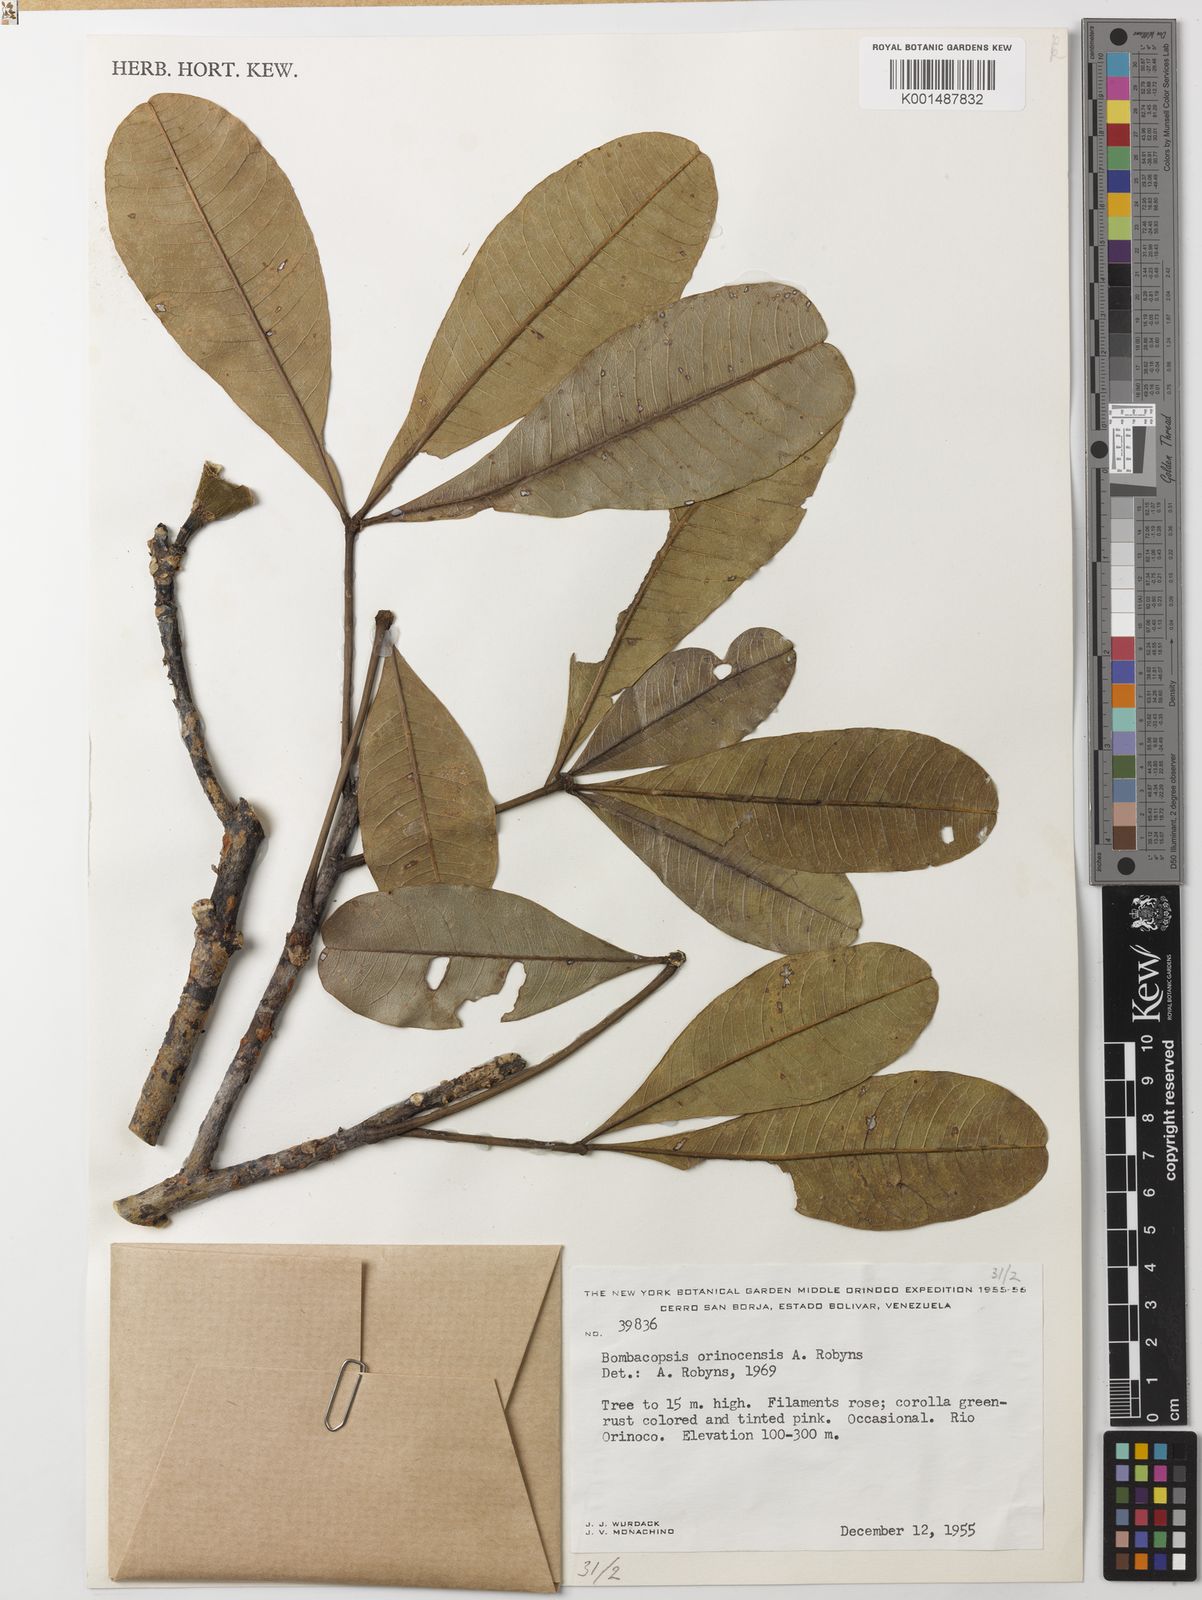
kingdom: Plantae
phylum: Tracheophyta
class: Magnoliopsida
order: Malvales
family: Malvaceae
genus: Pachira
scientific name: Pachira orinocensis
